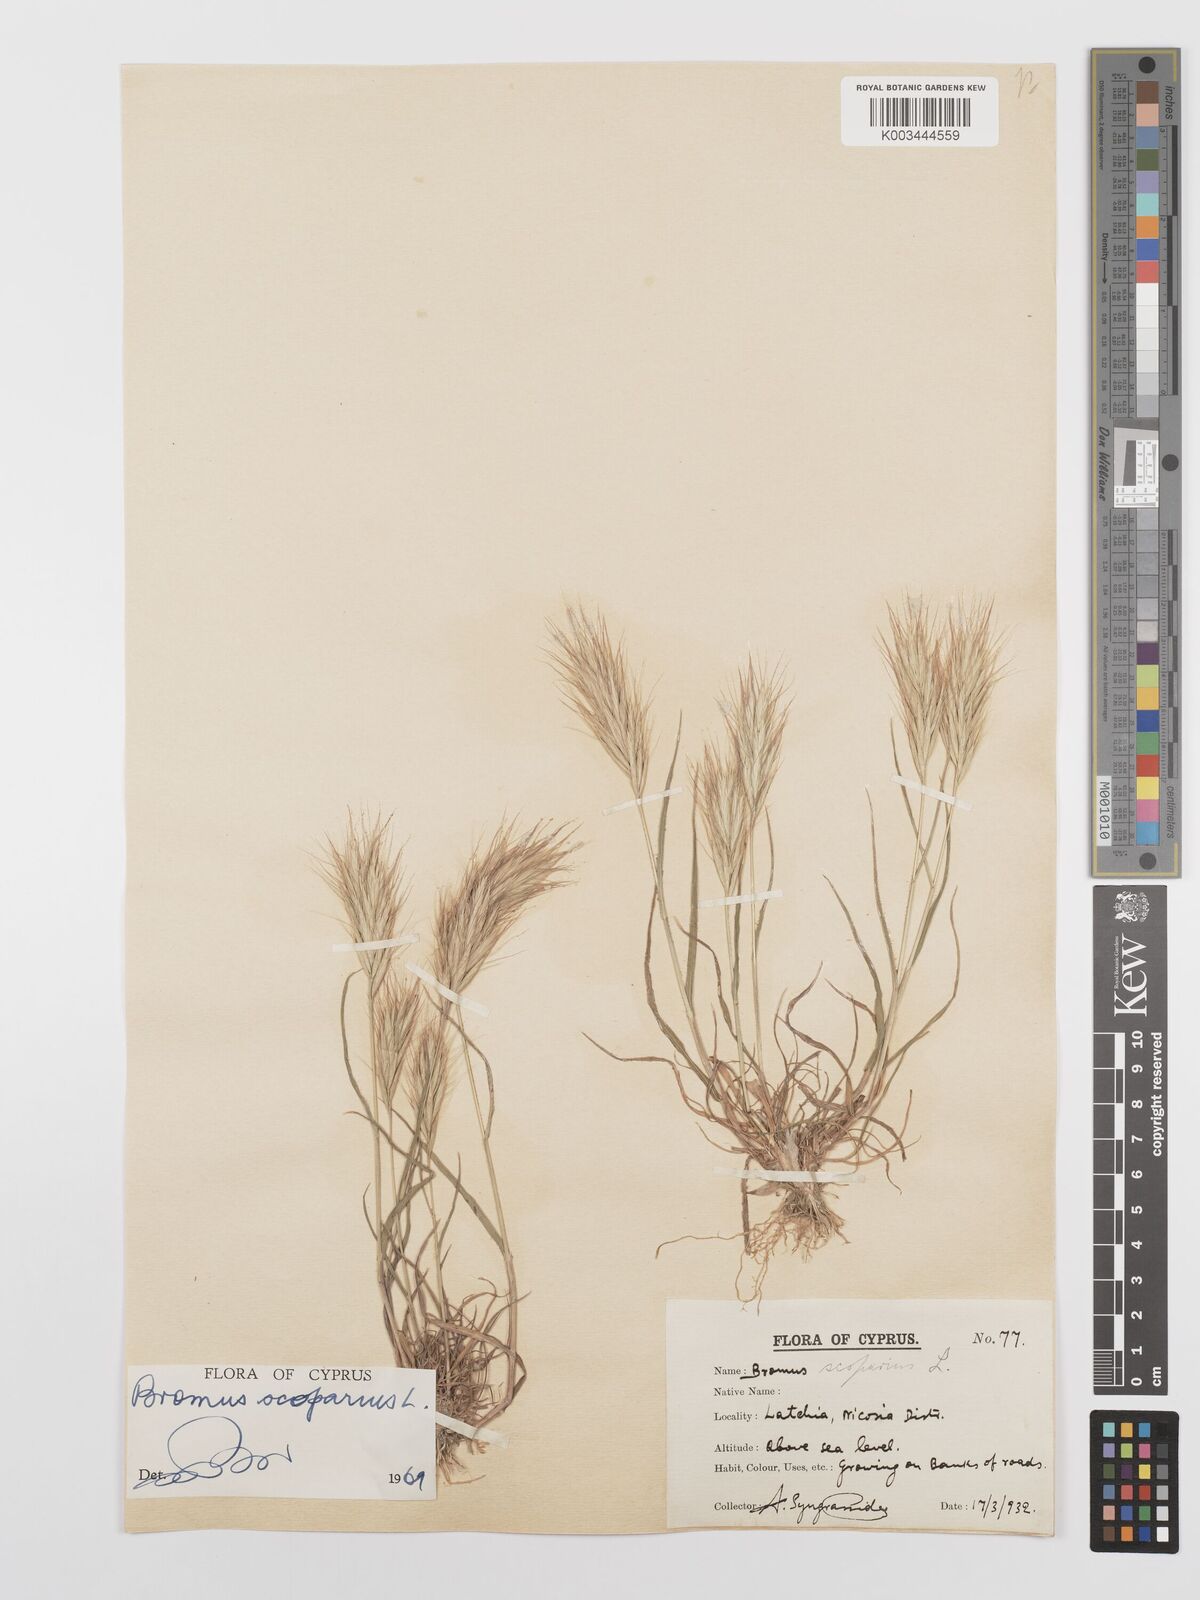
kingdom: Plantae
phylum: Tracheophyta
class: Liliopsida
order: Poales
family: Poaceae
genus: Bromus
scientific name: Bromus scoparius
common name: Broom brome
